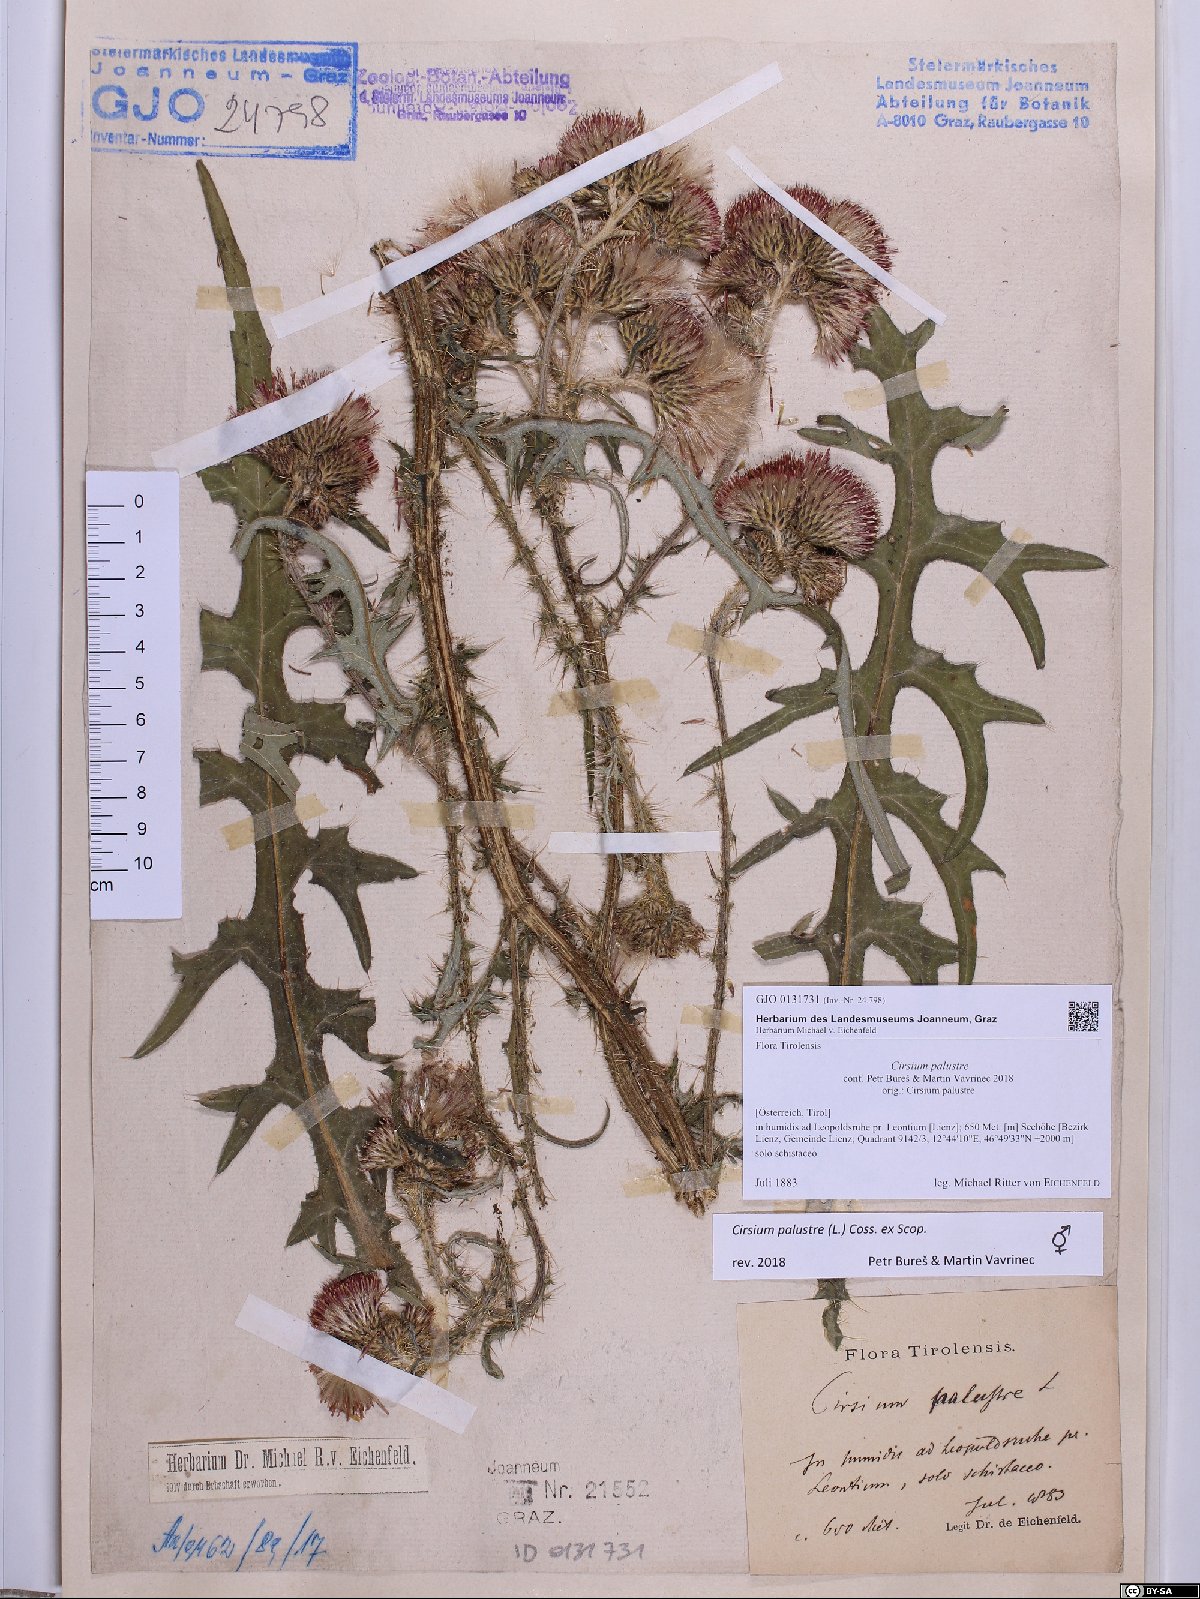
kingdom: Plantae
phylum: Tracheophyta
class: Magnoliopsida
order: Asterales
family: Asteraceae
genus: Cirsium
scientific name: Cirsium palustre
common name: Marsh thistle
